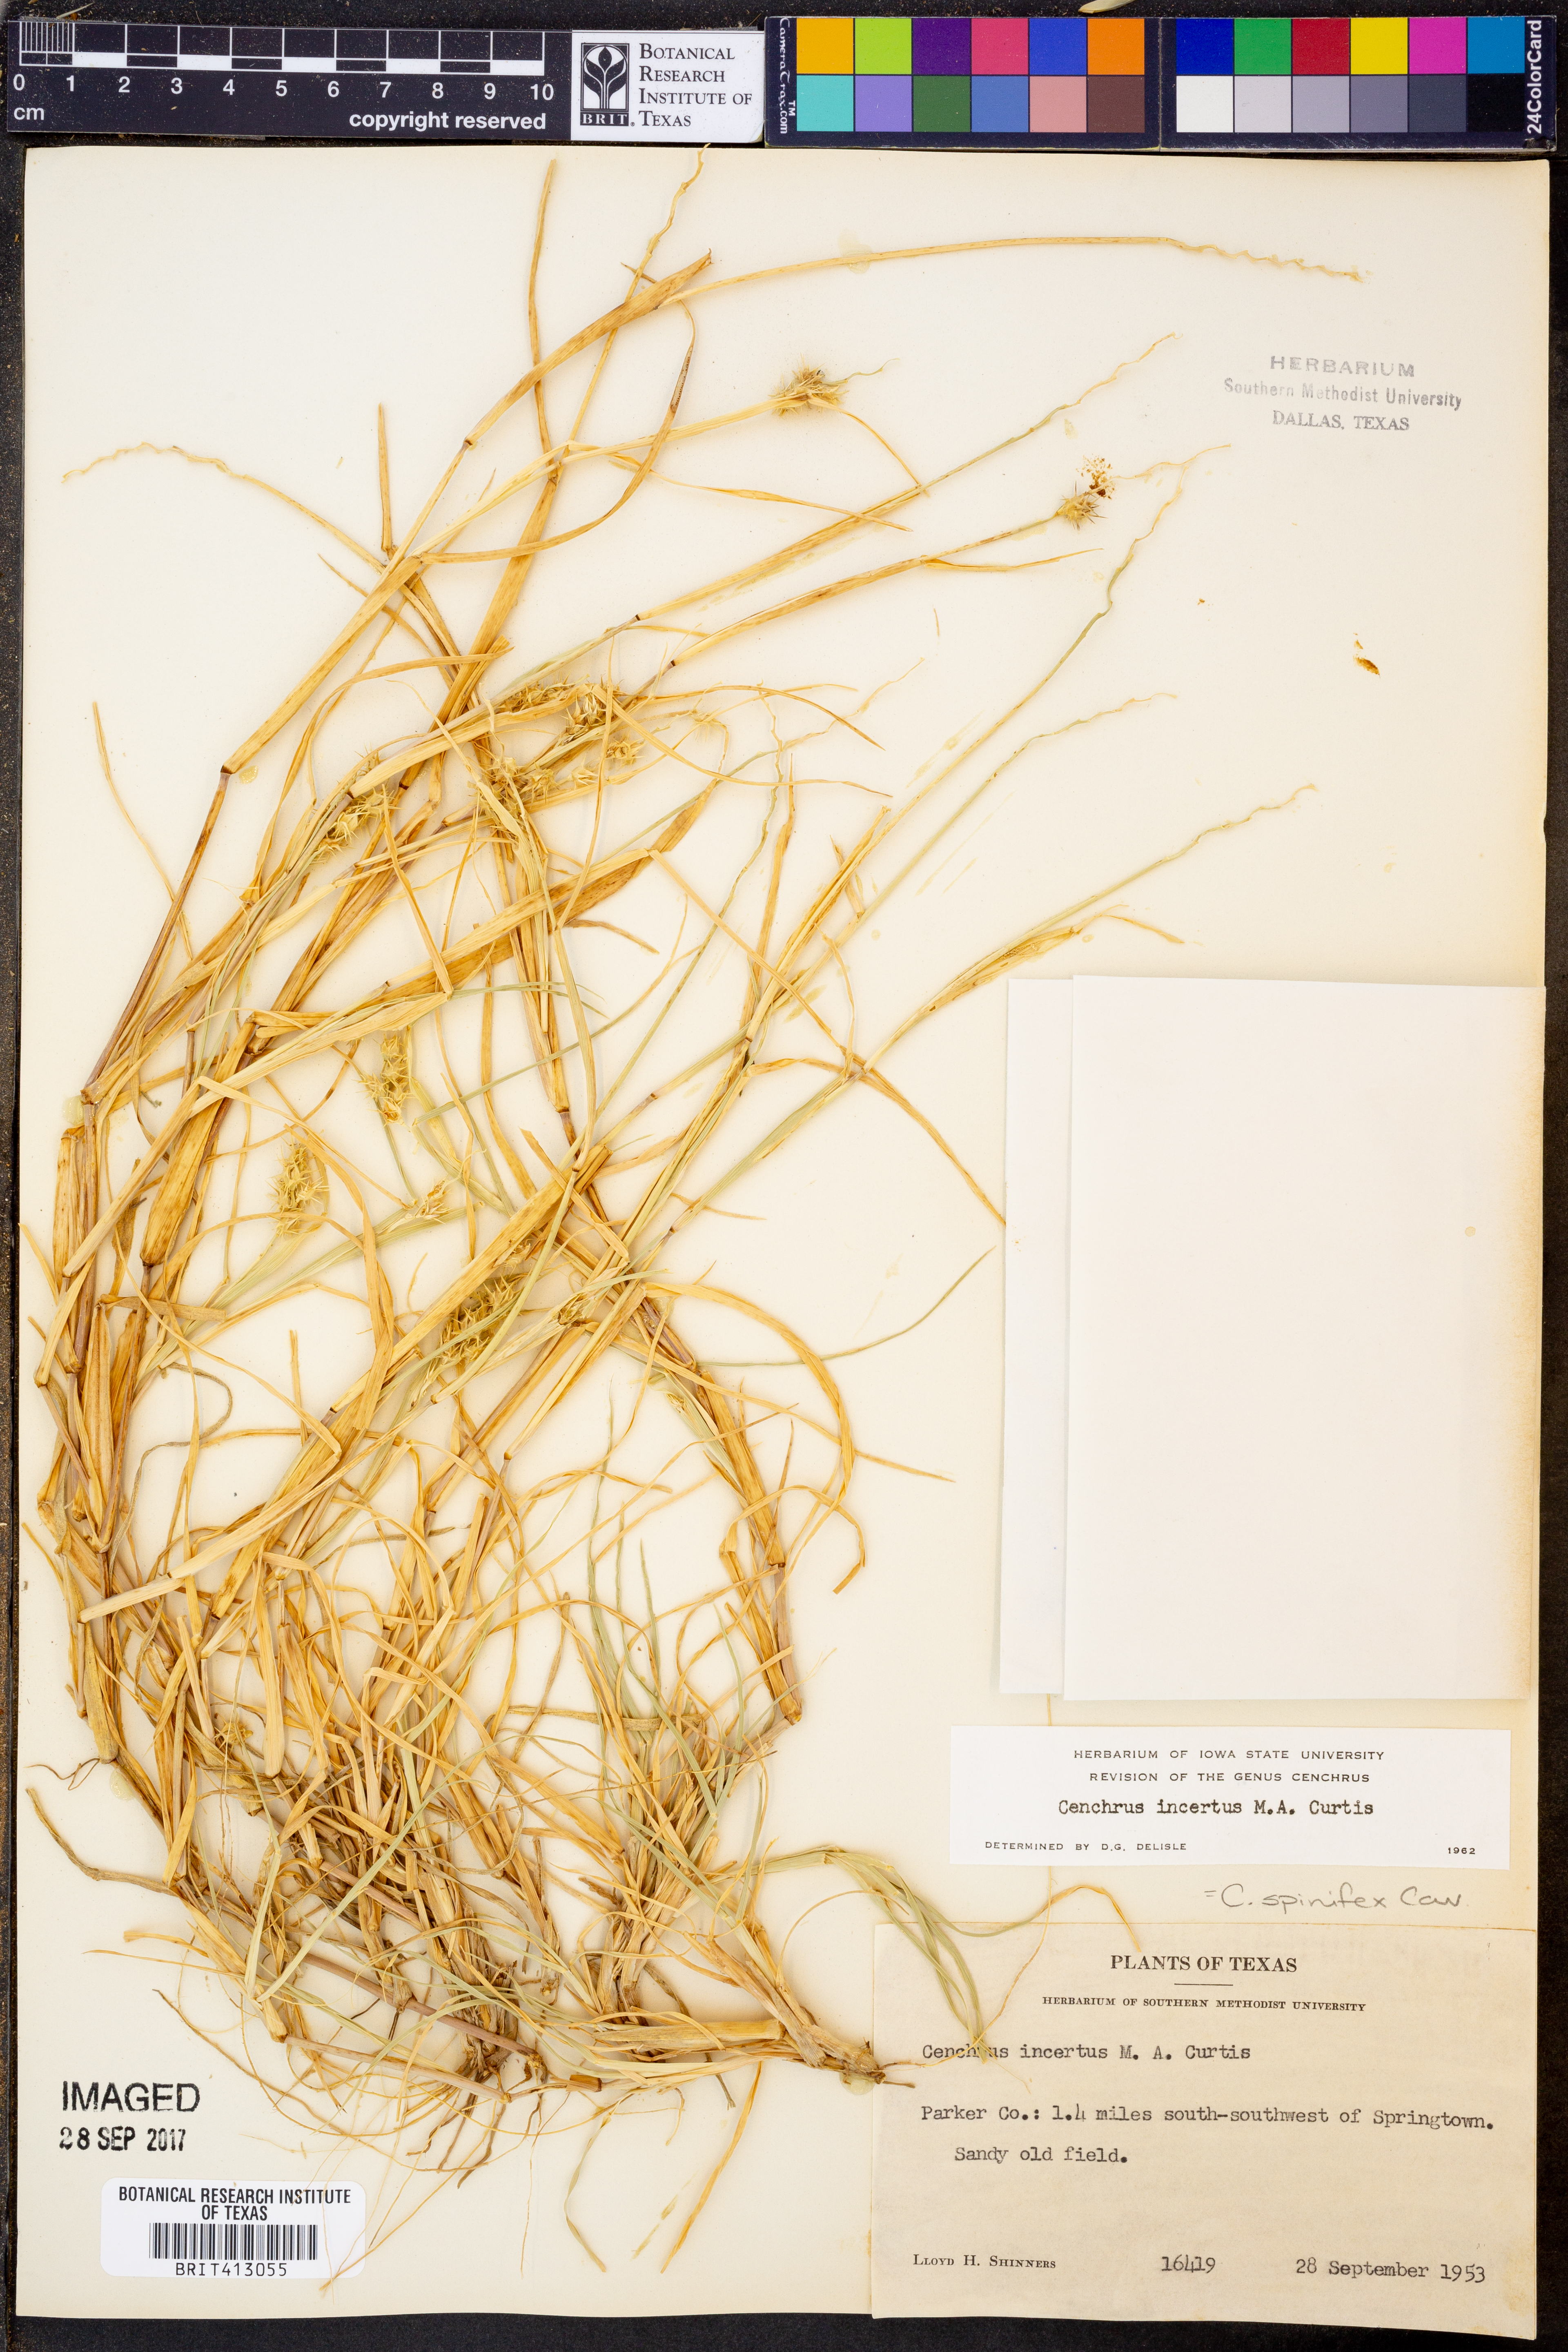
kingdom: Plantae
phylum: Tracheophyta
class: Liliopsida
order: Poales
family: Poaceae
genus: Cenchrus
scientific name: Cenchrus spinifex
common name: Coast sandbur
